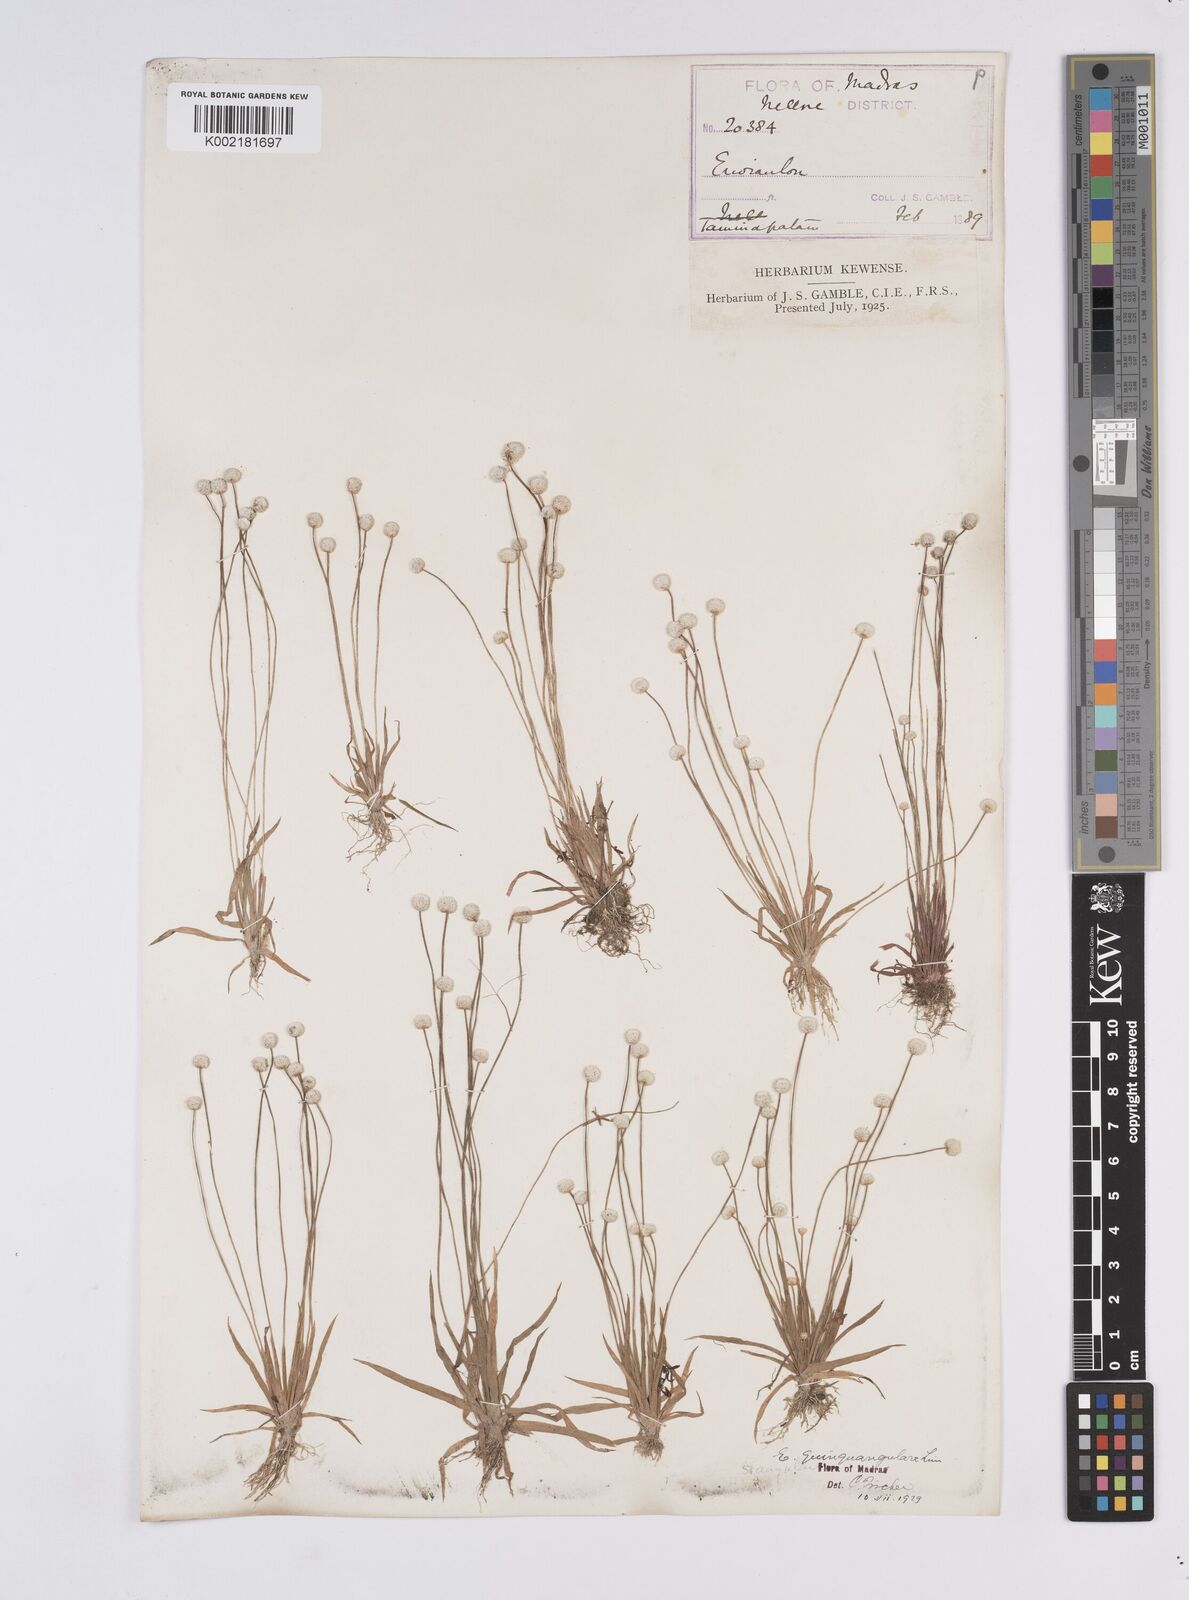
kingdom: Plantae
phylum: Tracheophyta
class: Liliopsida
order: Poales
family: Eriocaulaceae
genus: Eriocaulon
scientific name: Eriocaulon quinquangulare
